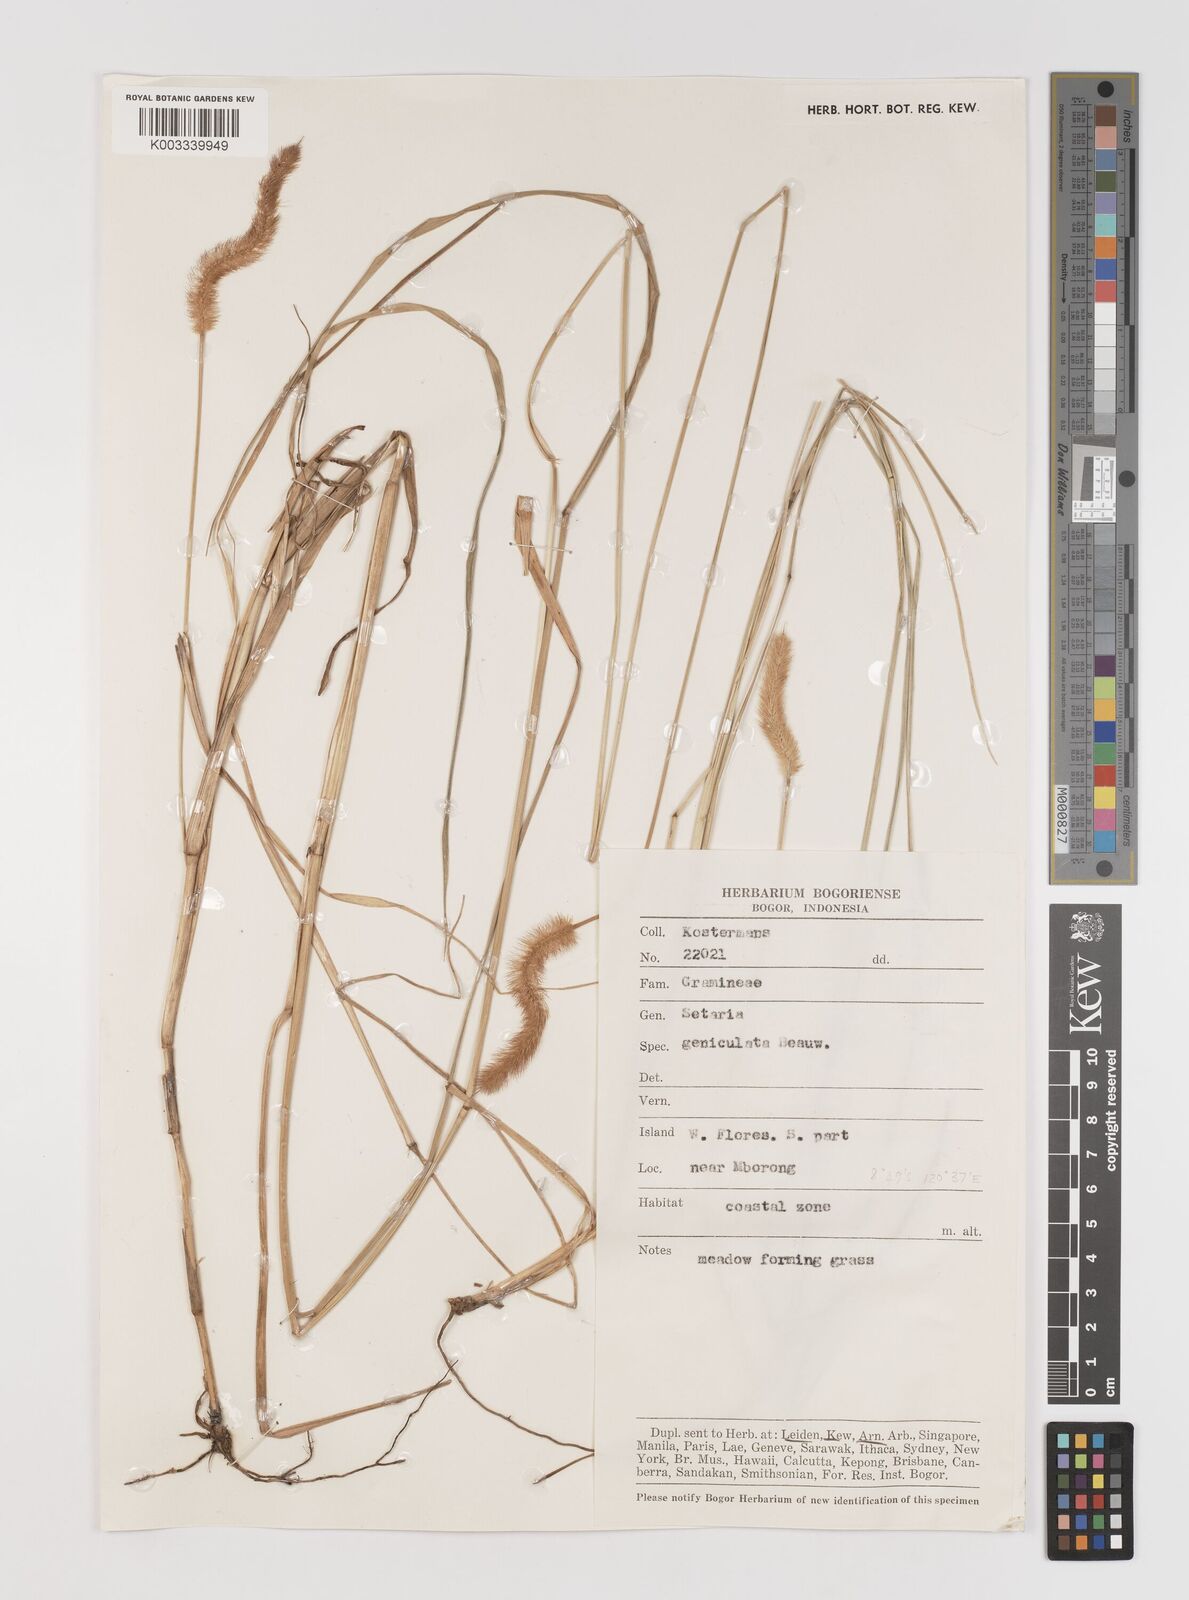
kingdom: Plantae
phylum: Tracheophyta
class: Liliopsida
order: Poales
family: Poaceae
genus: Setaria
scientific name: Setaria parviflora
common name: Knotroot bristle-grass
